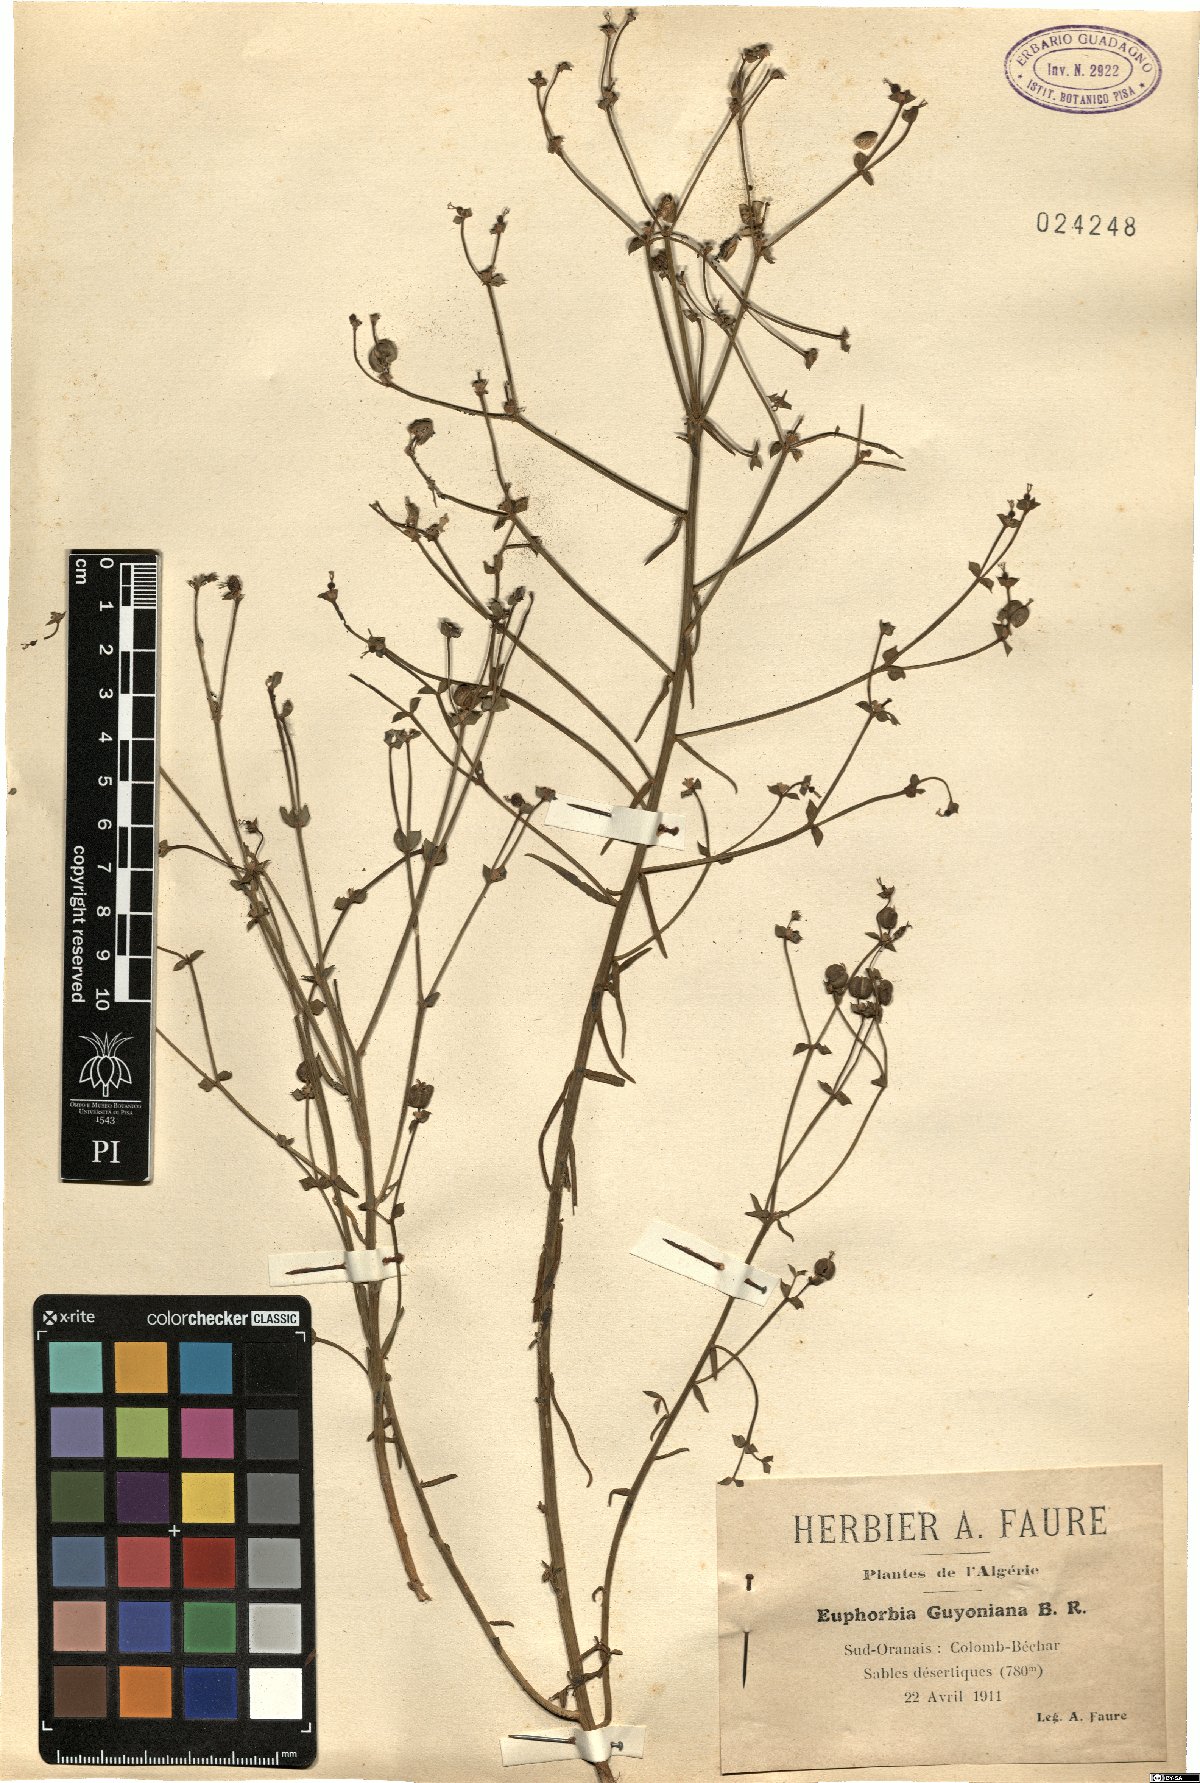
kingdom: Plantae
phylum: Tracheophyta
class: Magnoliopsida
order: Malpighiales
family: Euphorbiaceae
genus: Euphorbia
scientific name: Euphorbia guyoniana
